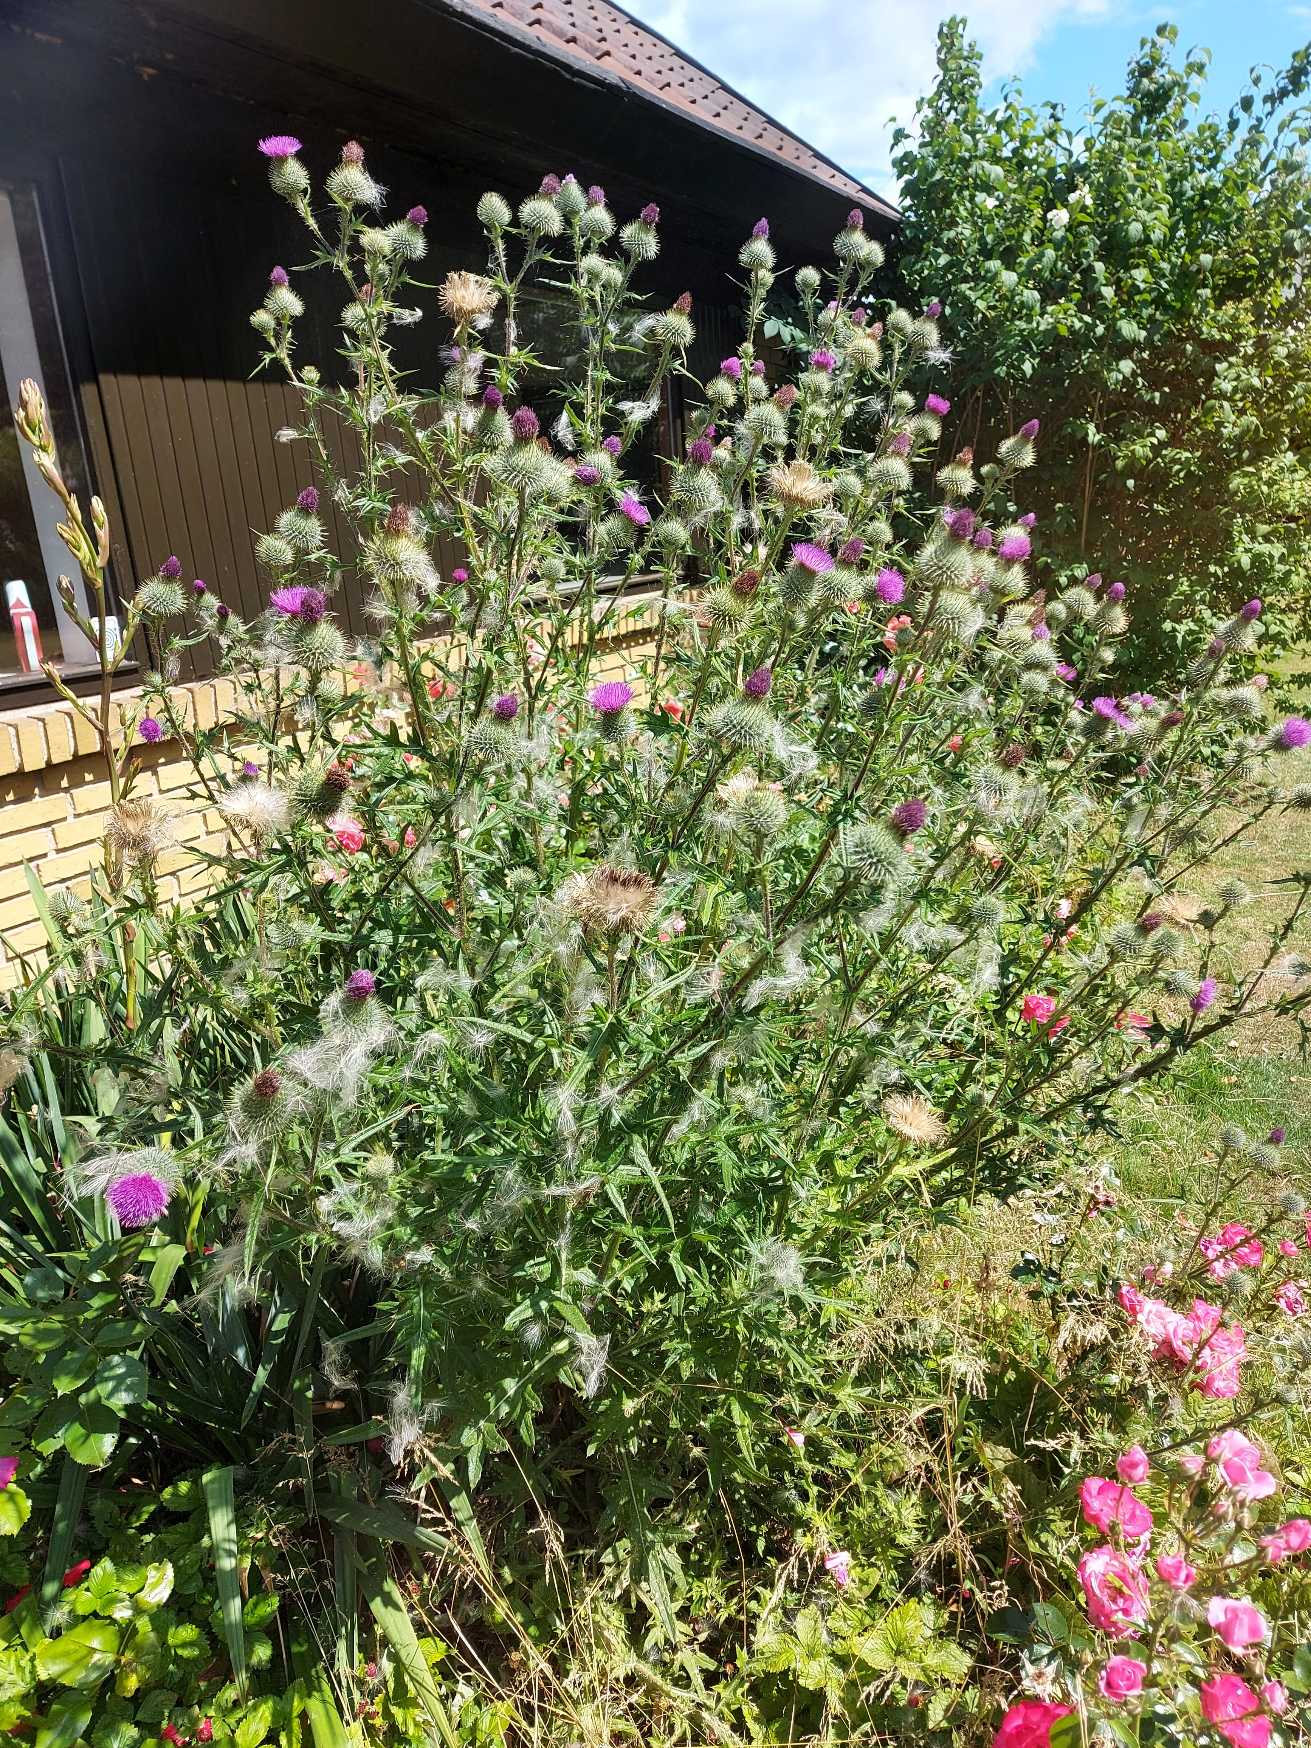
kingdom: Plantae
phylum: Tracheophyta
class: Magnoliopsida
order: Asterales
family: Asteraceae
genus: Cirsium
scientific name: Cirsium vulgare
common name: Horse-tidsel
